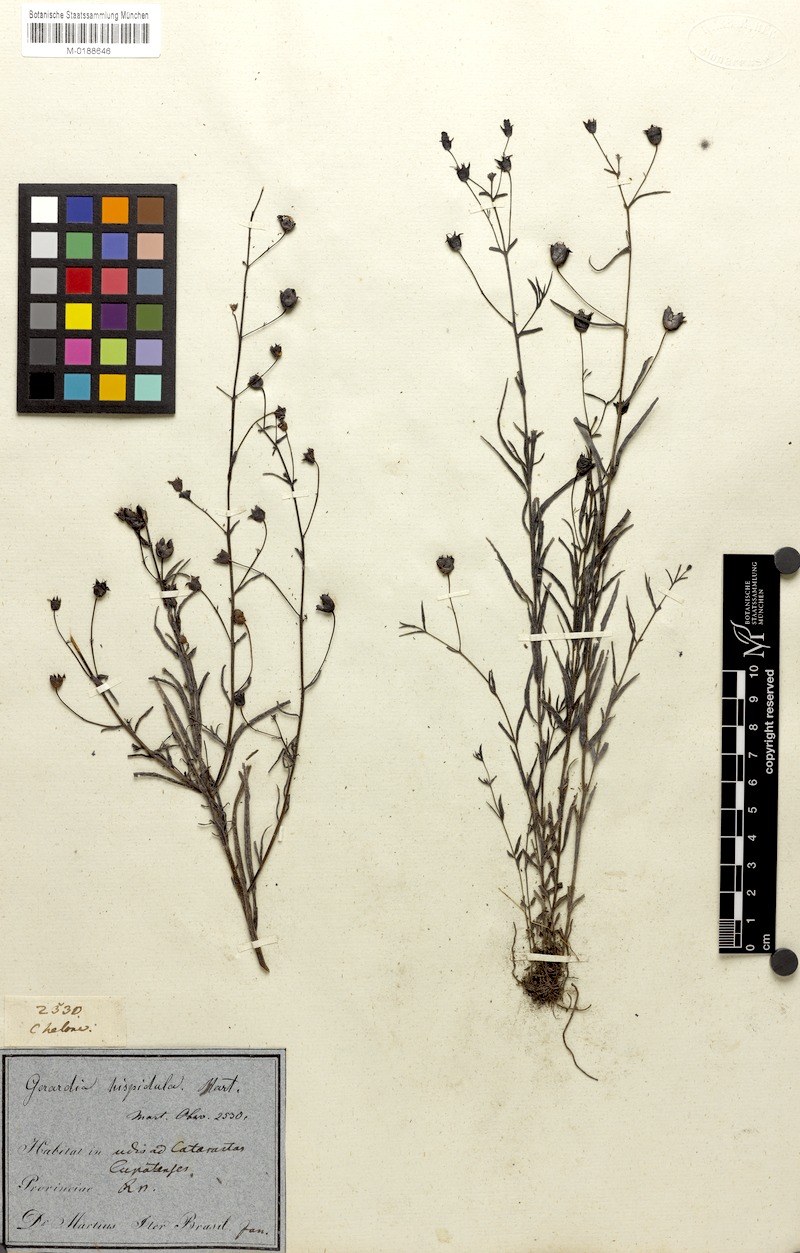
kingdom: Plantae
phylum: Tracheophyta
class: Magnoliopsida
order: Lamiales
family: Orobanchaceae
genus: Agalinis
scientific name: Agalinis hispidula
